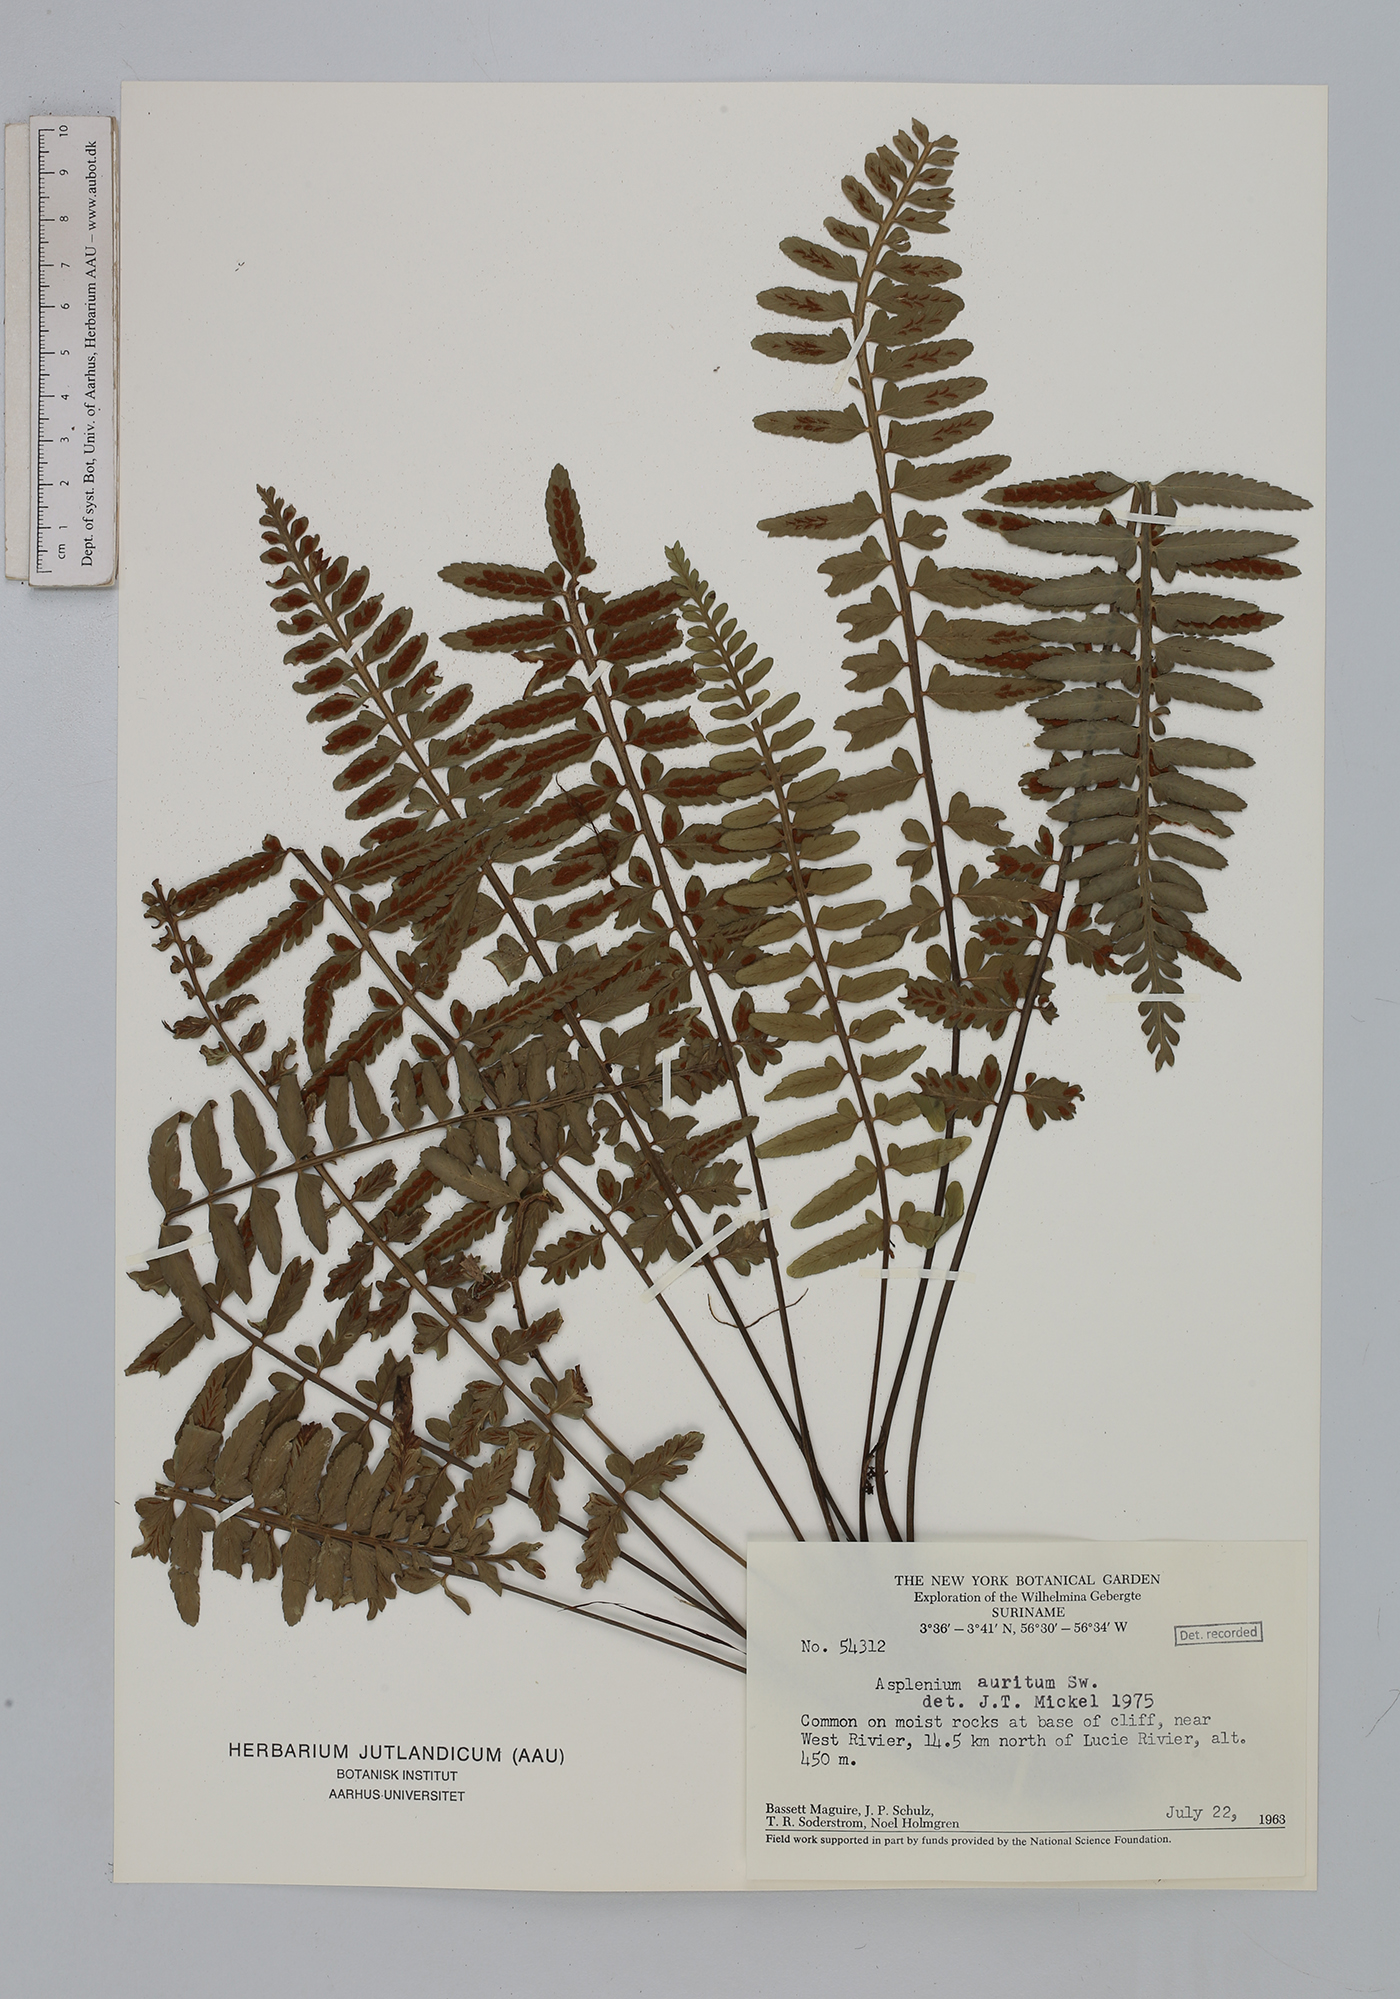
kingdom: Plantae
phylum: Tracheophyta
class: Polypodiopsida
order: Polypodiales
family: Aspleniaceae
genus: Asplenium
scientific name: Asplenium auritum
